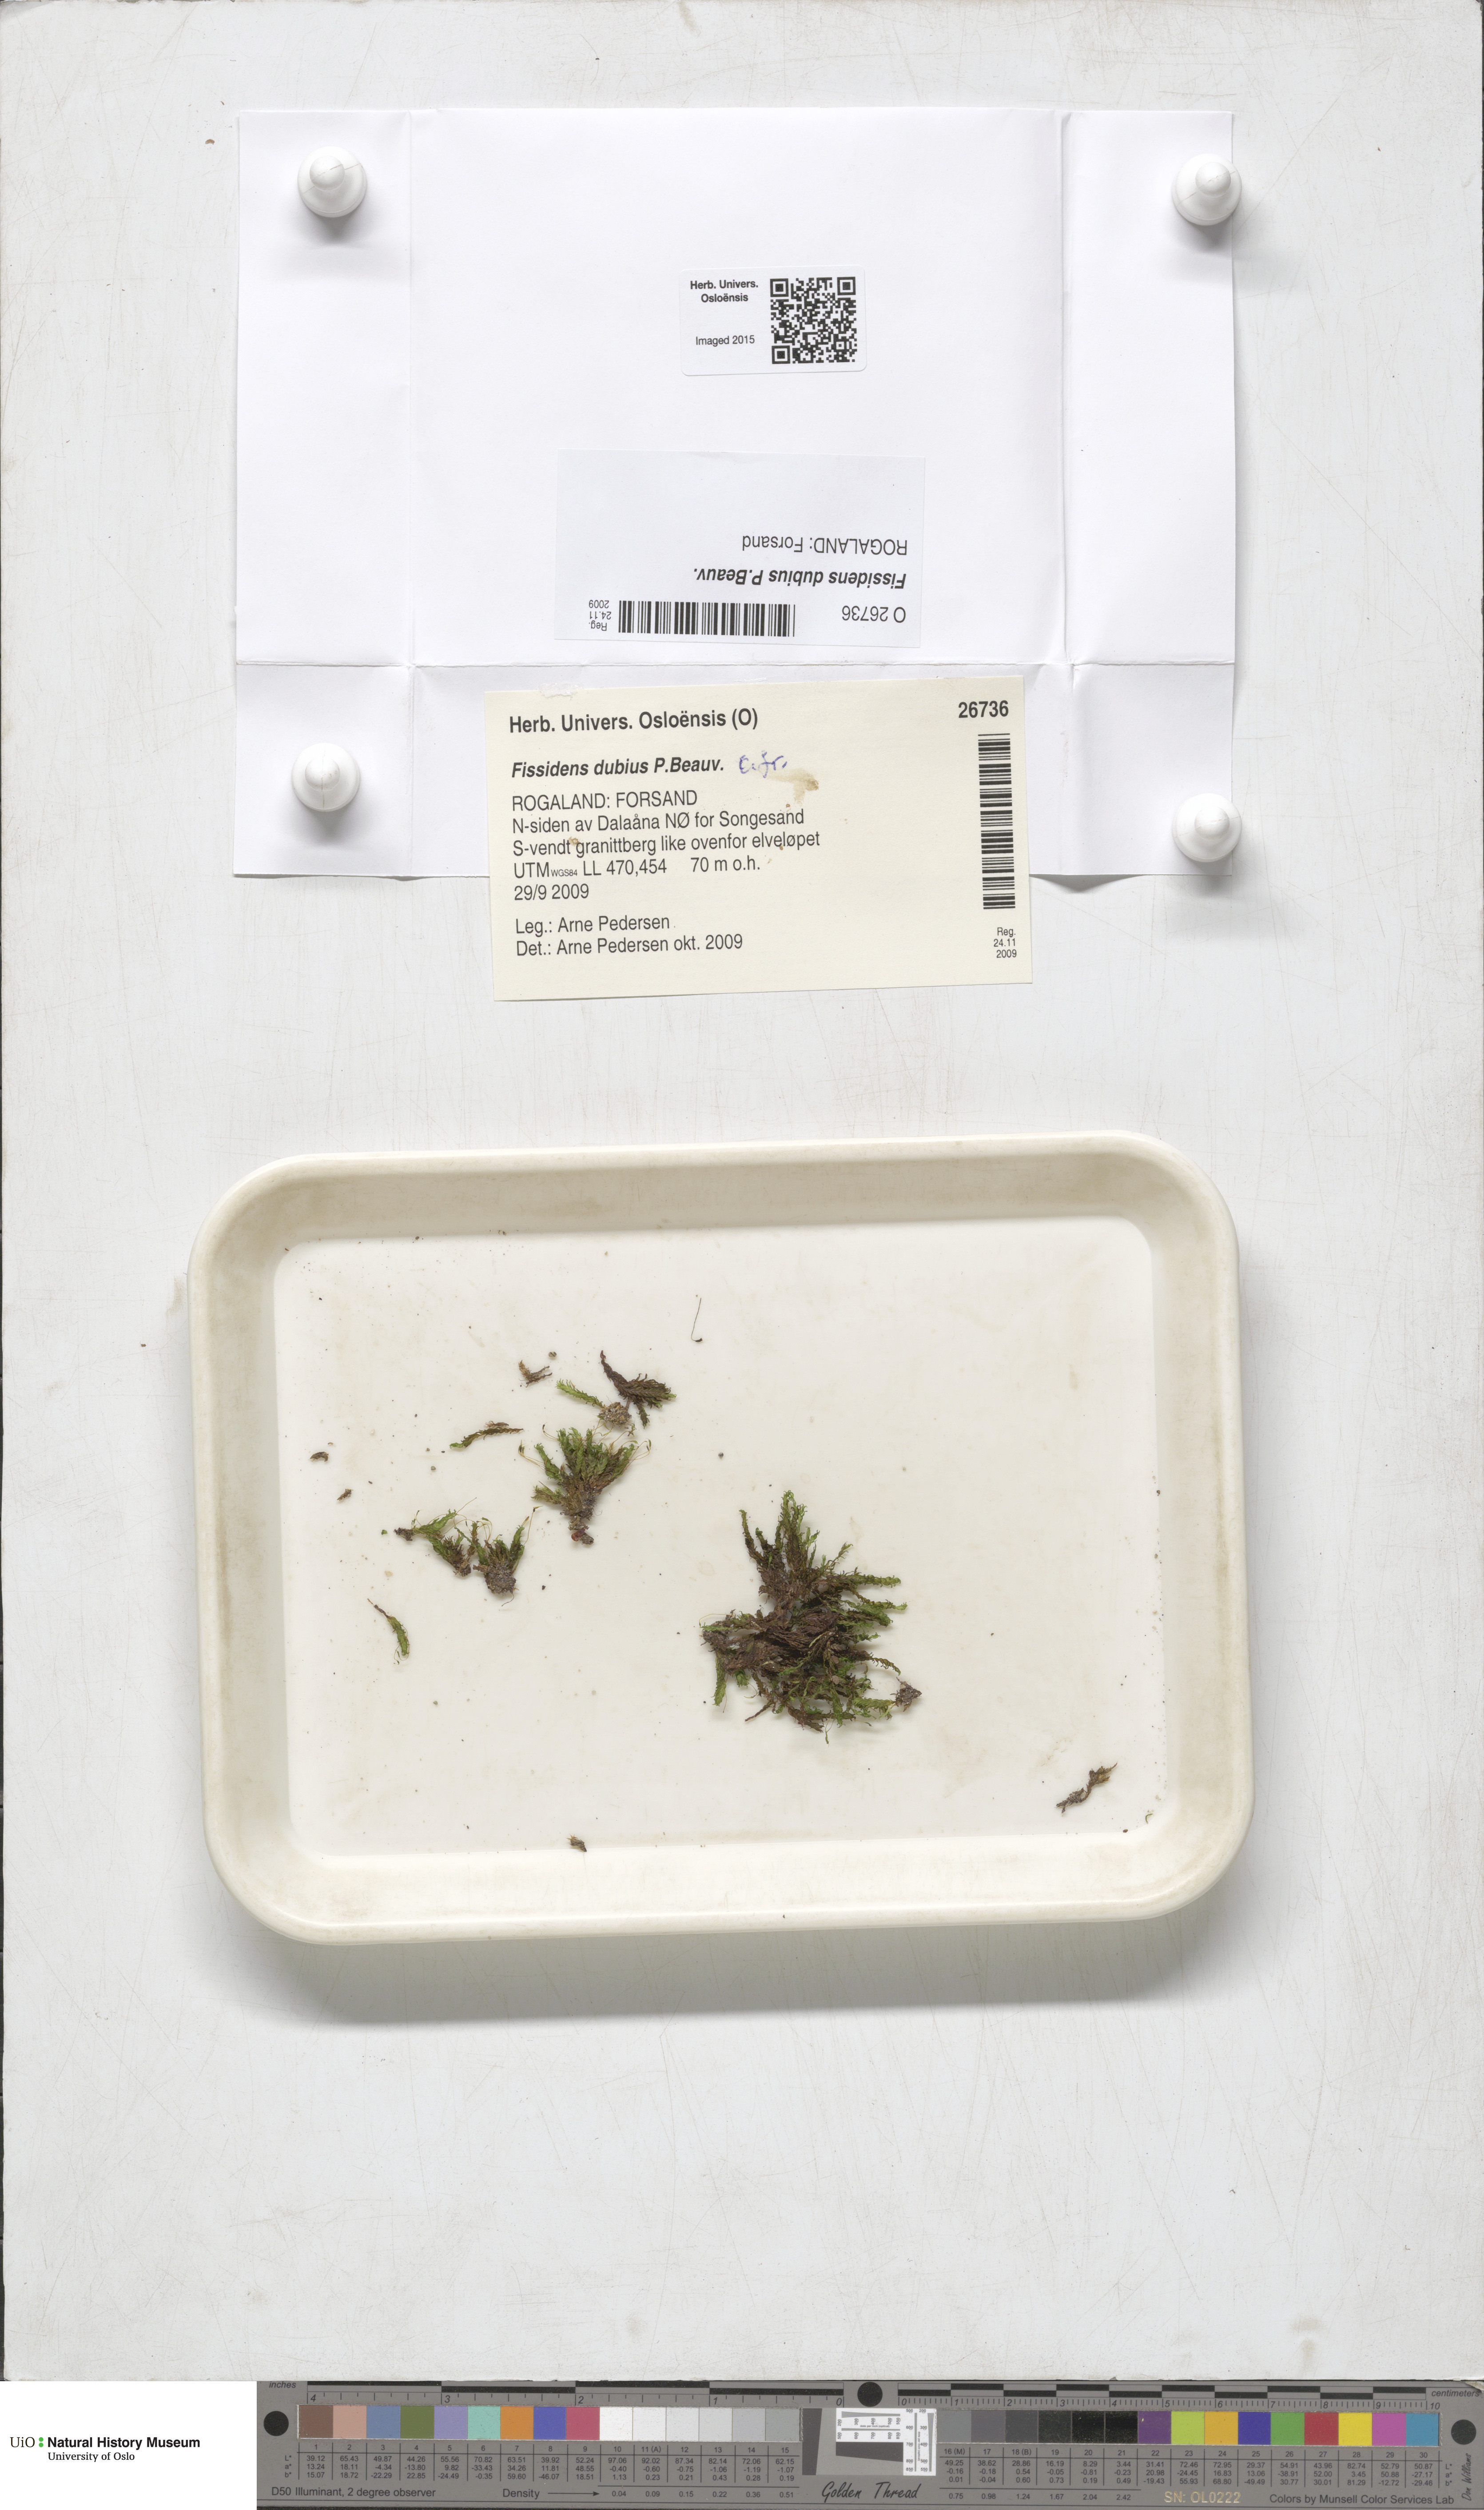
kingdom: Plantae
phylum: Bryophyta
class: Bryopsida
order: Dicranales
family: Fissidentaceae
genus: Fissidens
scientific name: Fissidens dubius
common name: Rock pocket moss
